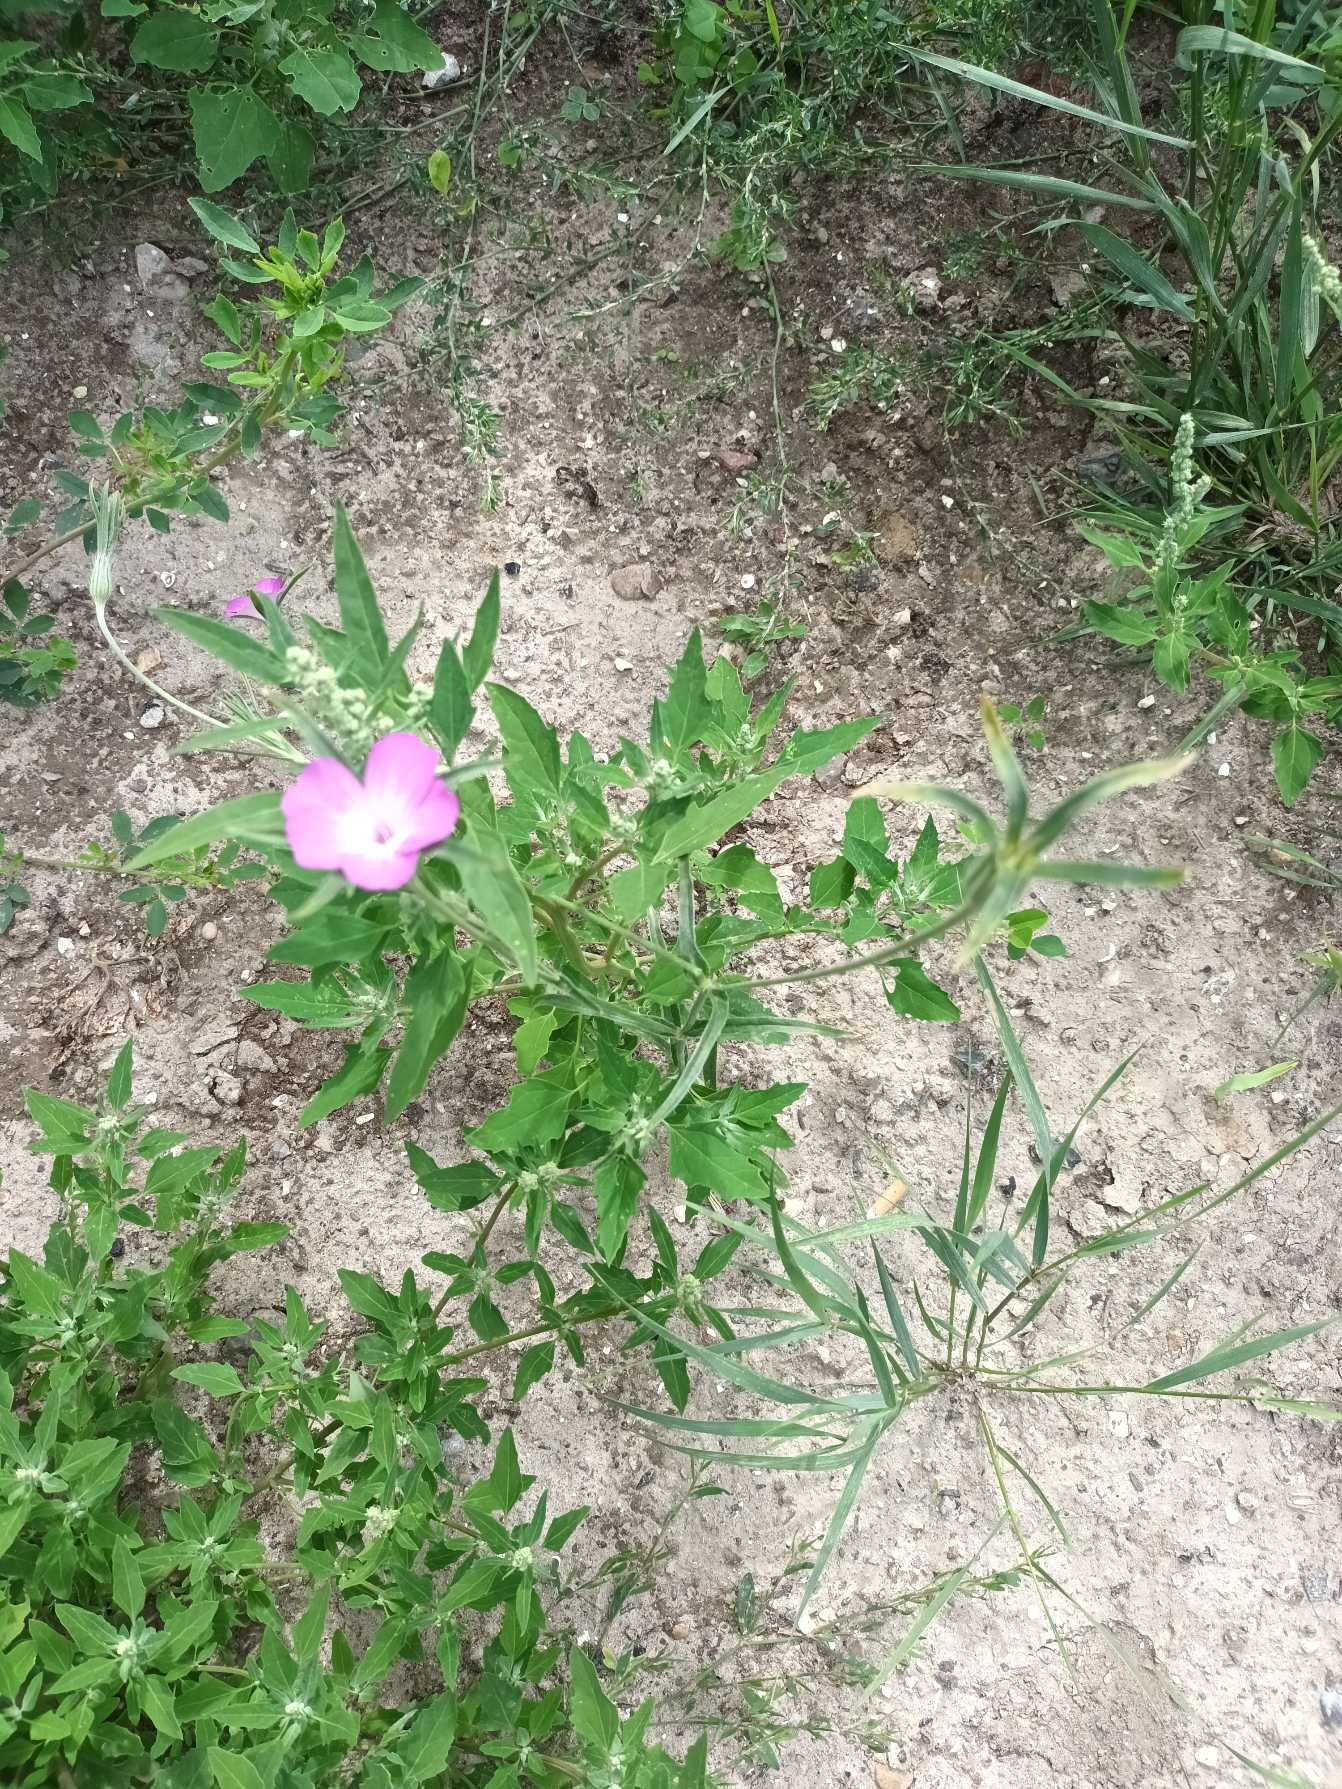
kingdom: Plantae
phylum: Tracheophyta
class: Magnoliopsida
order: Caryophyllales
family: Caryophyllaceae
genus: Agrostemma
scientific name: Agrostemma githago
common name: Klinte
